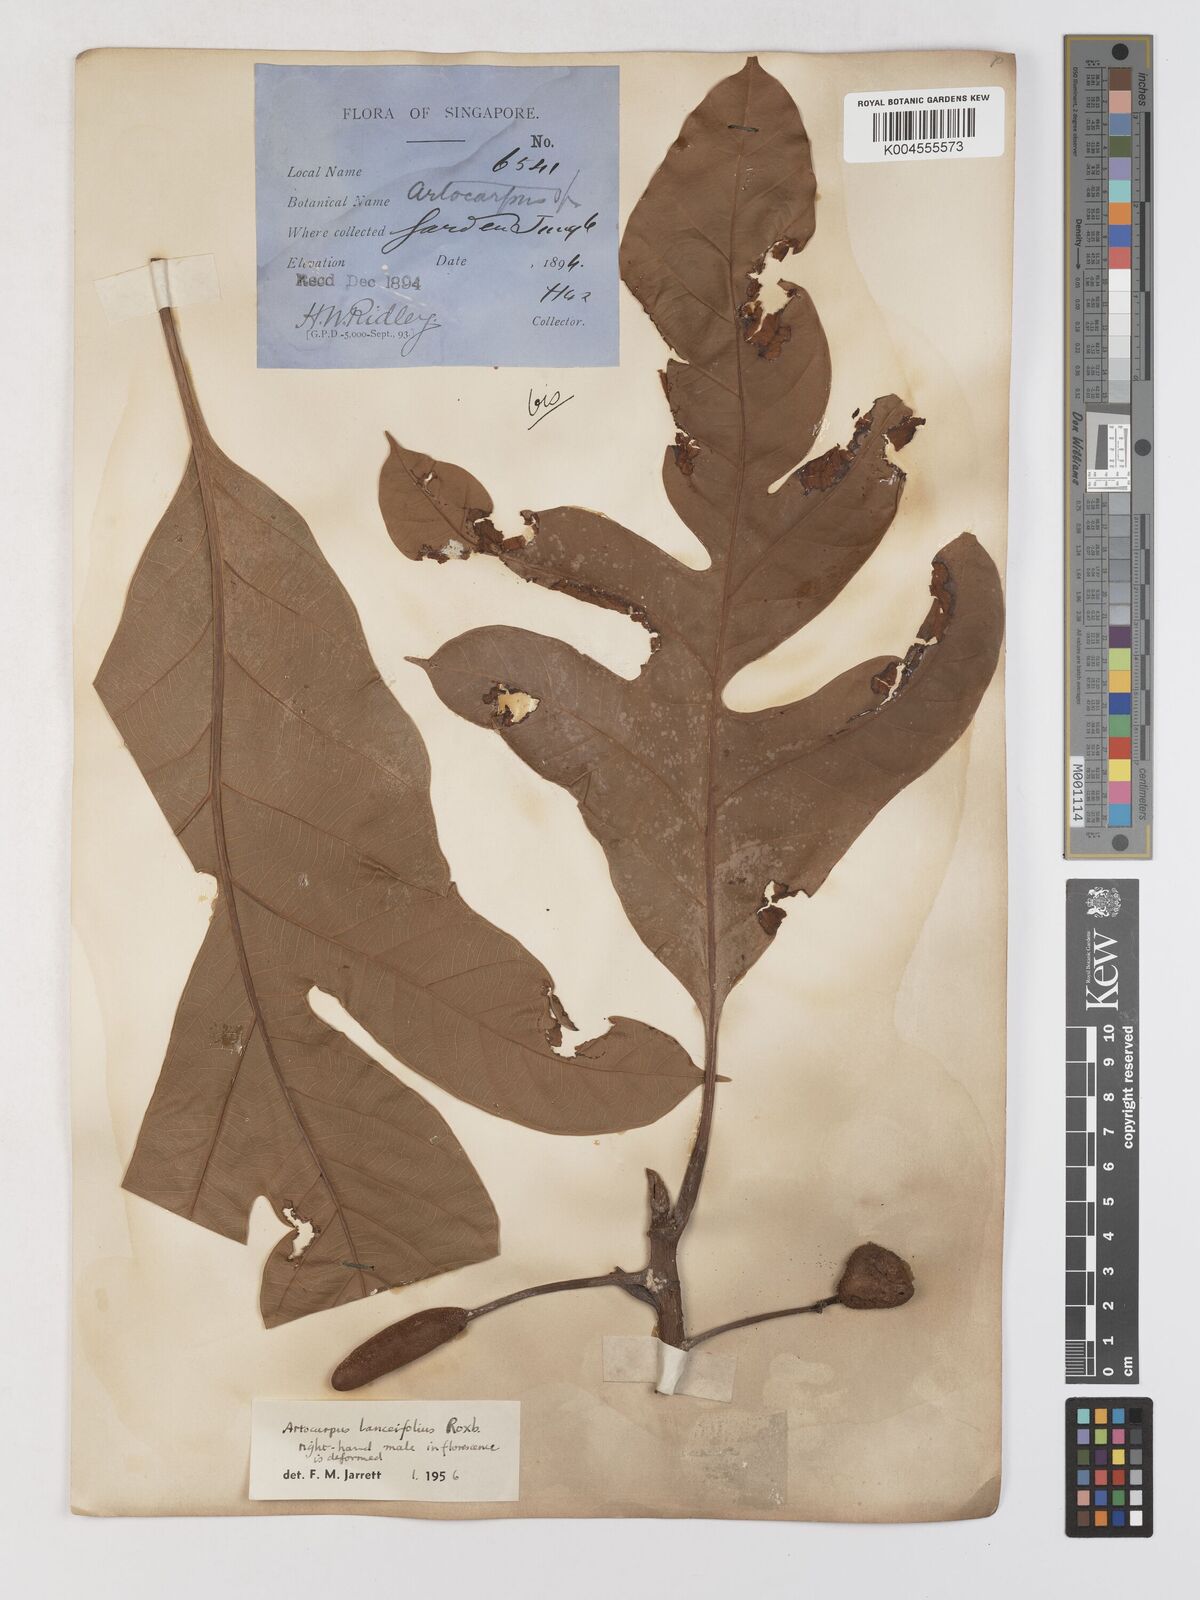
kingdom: Plantae
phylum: Tracheophyta
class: Magnoliopsida
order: Rosales
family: Moraceae
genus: Artocarpus
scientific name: Artocarpus lanceifolius
